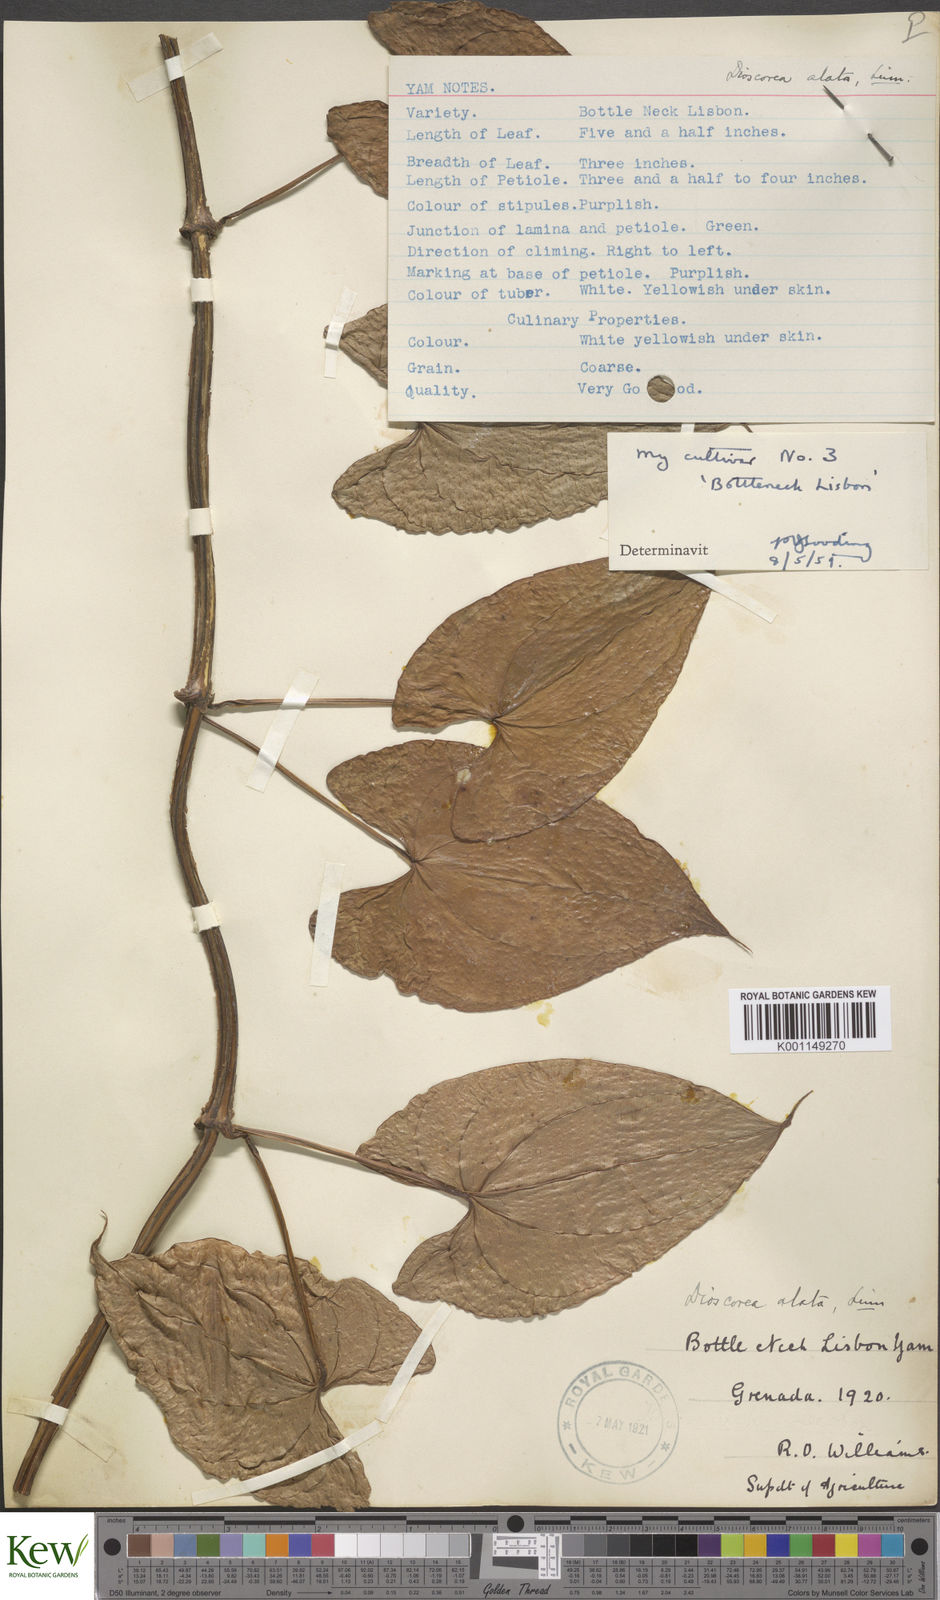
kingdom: Plantae
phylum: Tracheophyta
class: Liliopsida
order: Dioscoreales
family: Dioscoreaceae
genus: Dioscorea
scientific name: Dioscorea alata
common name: Water yam
